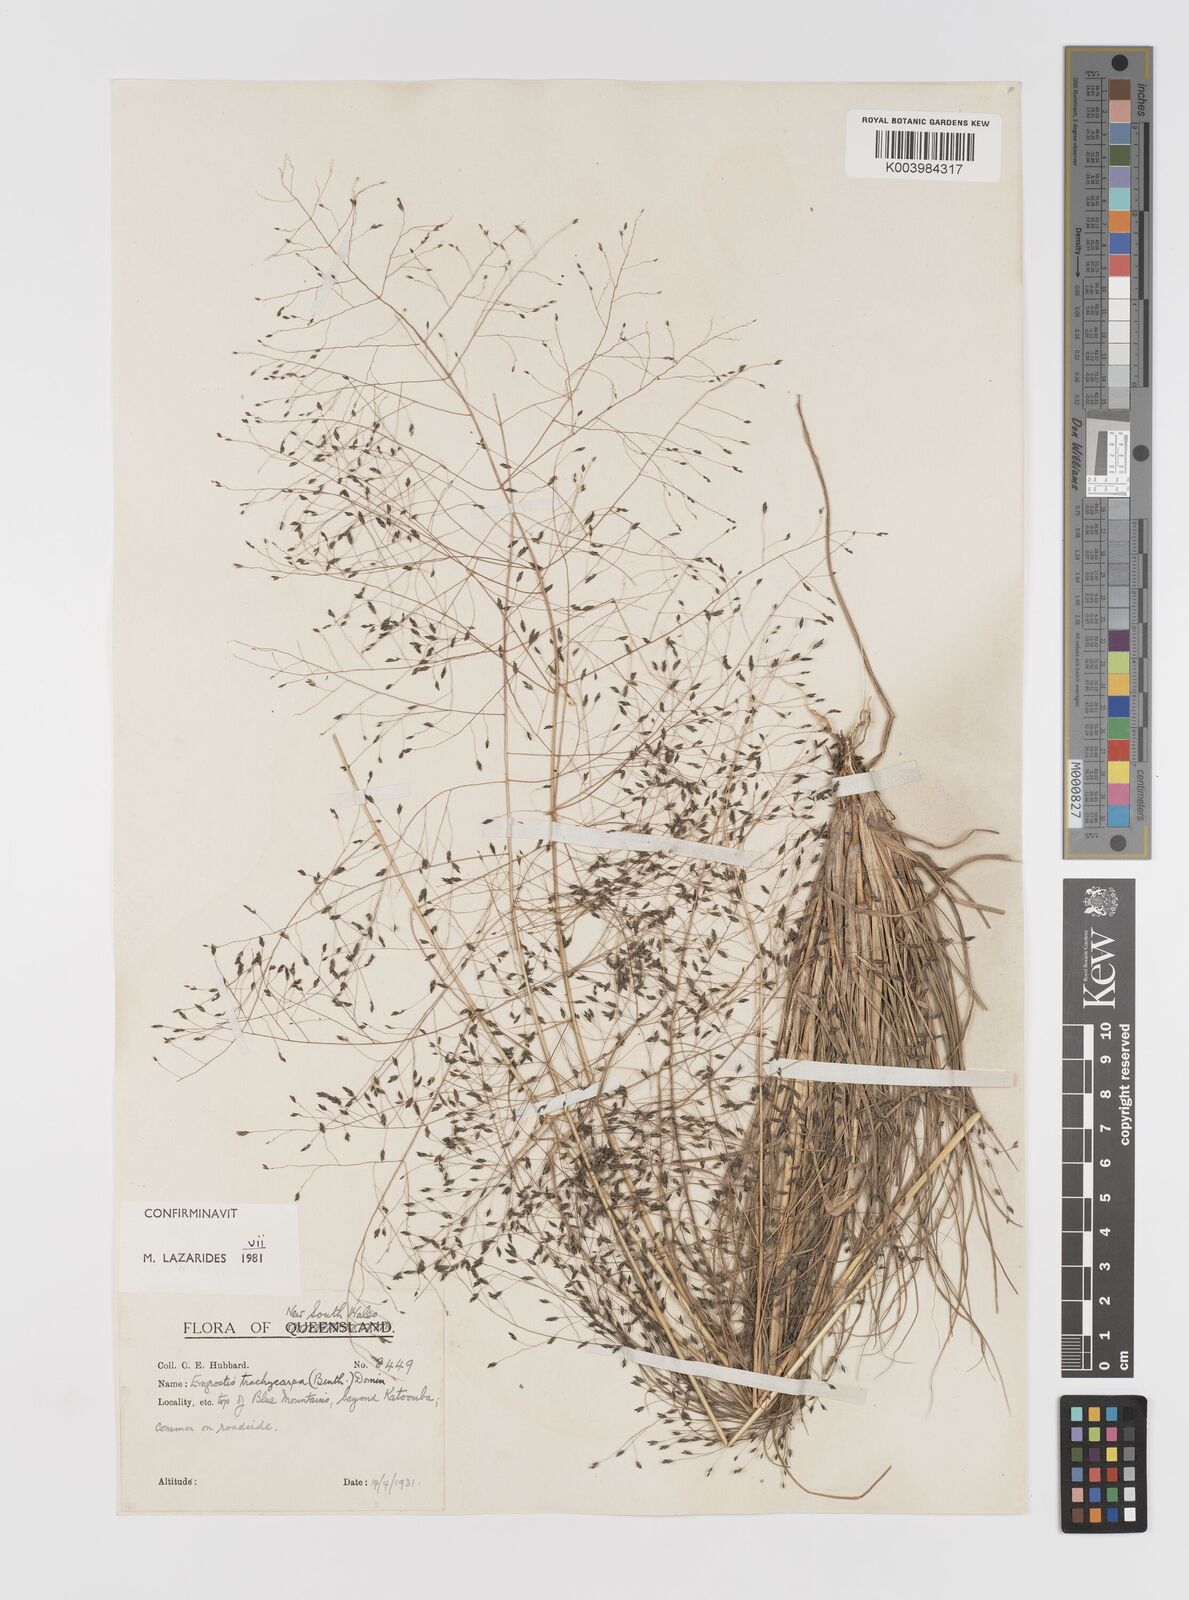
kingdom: Plantae
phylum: Tracheophyta
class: Liliopsida
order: Poales
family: Poaceae
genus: Eragrostis
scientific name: Eragrostis trachycarpa
